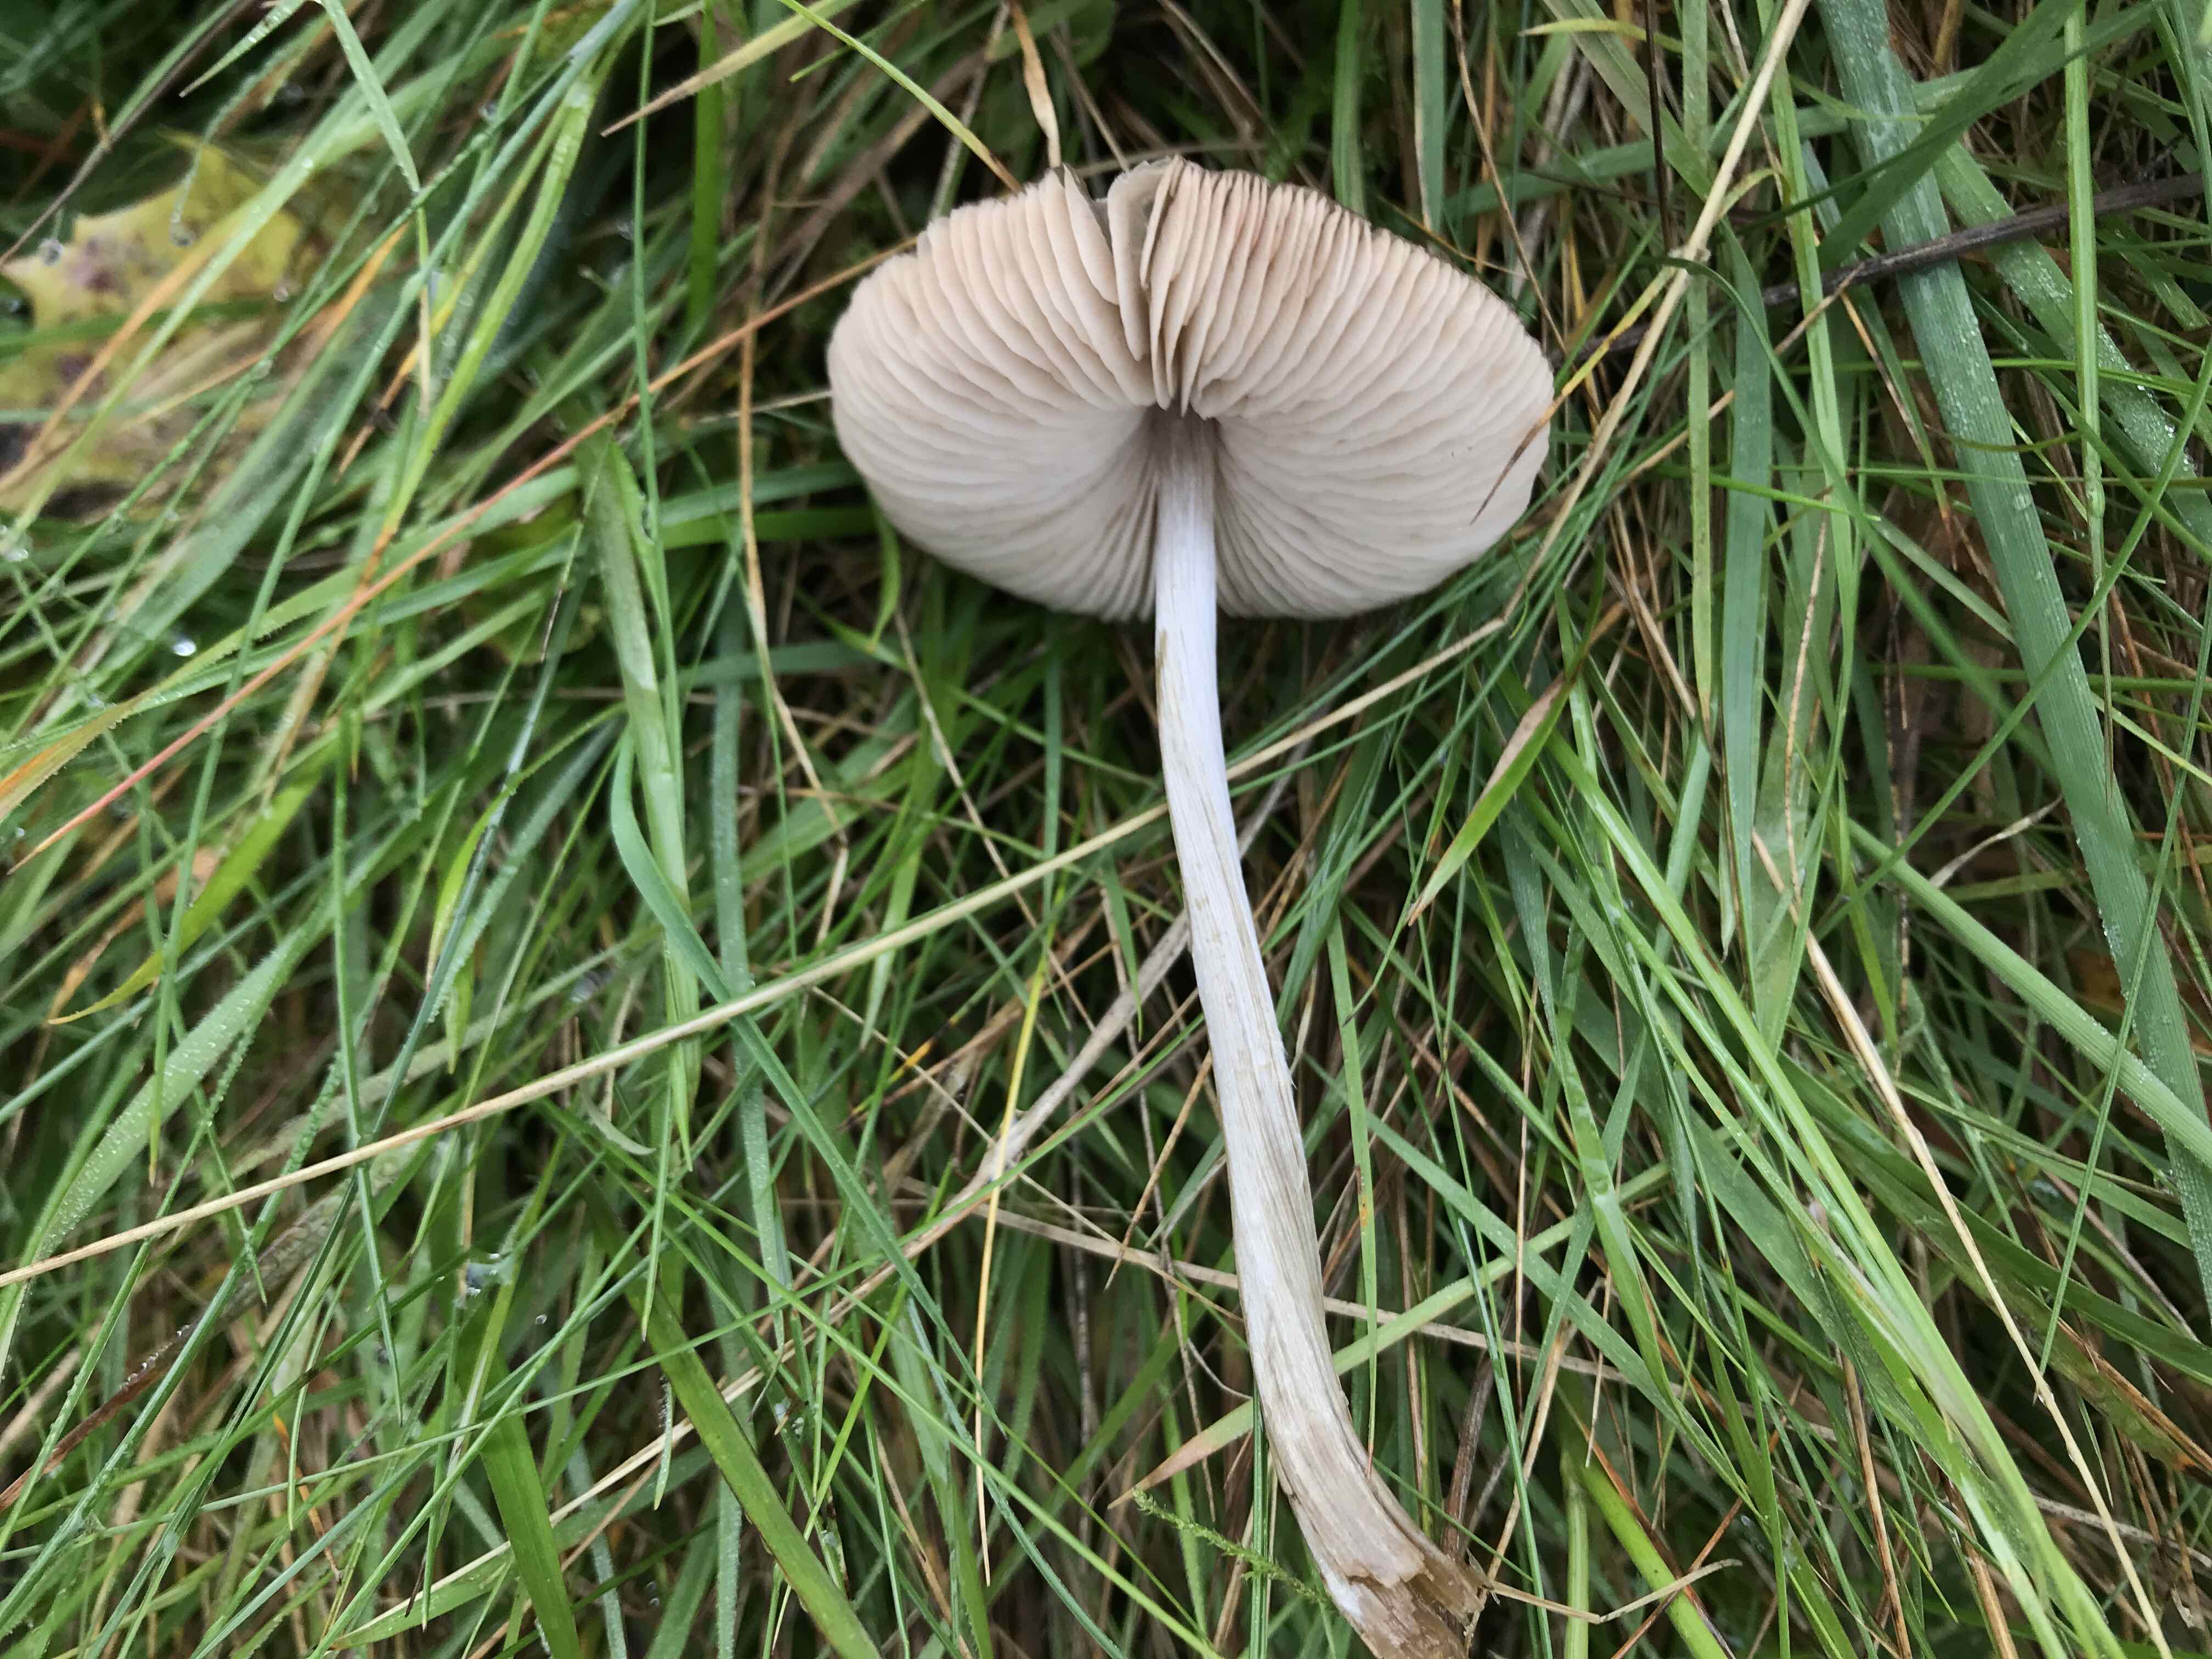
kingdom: Fungi
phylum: Basidiomycota
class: Agaricomycetes
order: Agaricales
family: Entolomataceae
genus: Entoloma
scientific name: Entoloma
